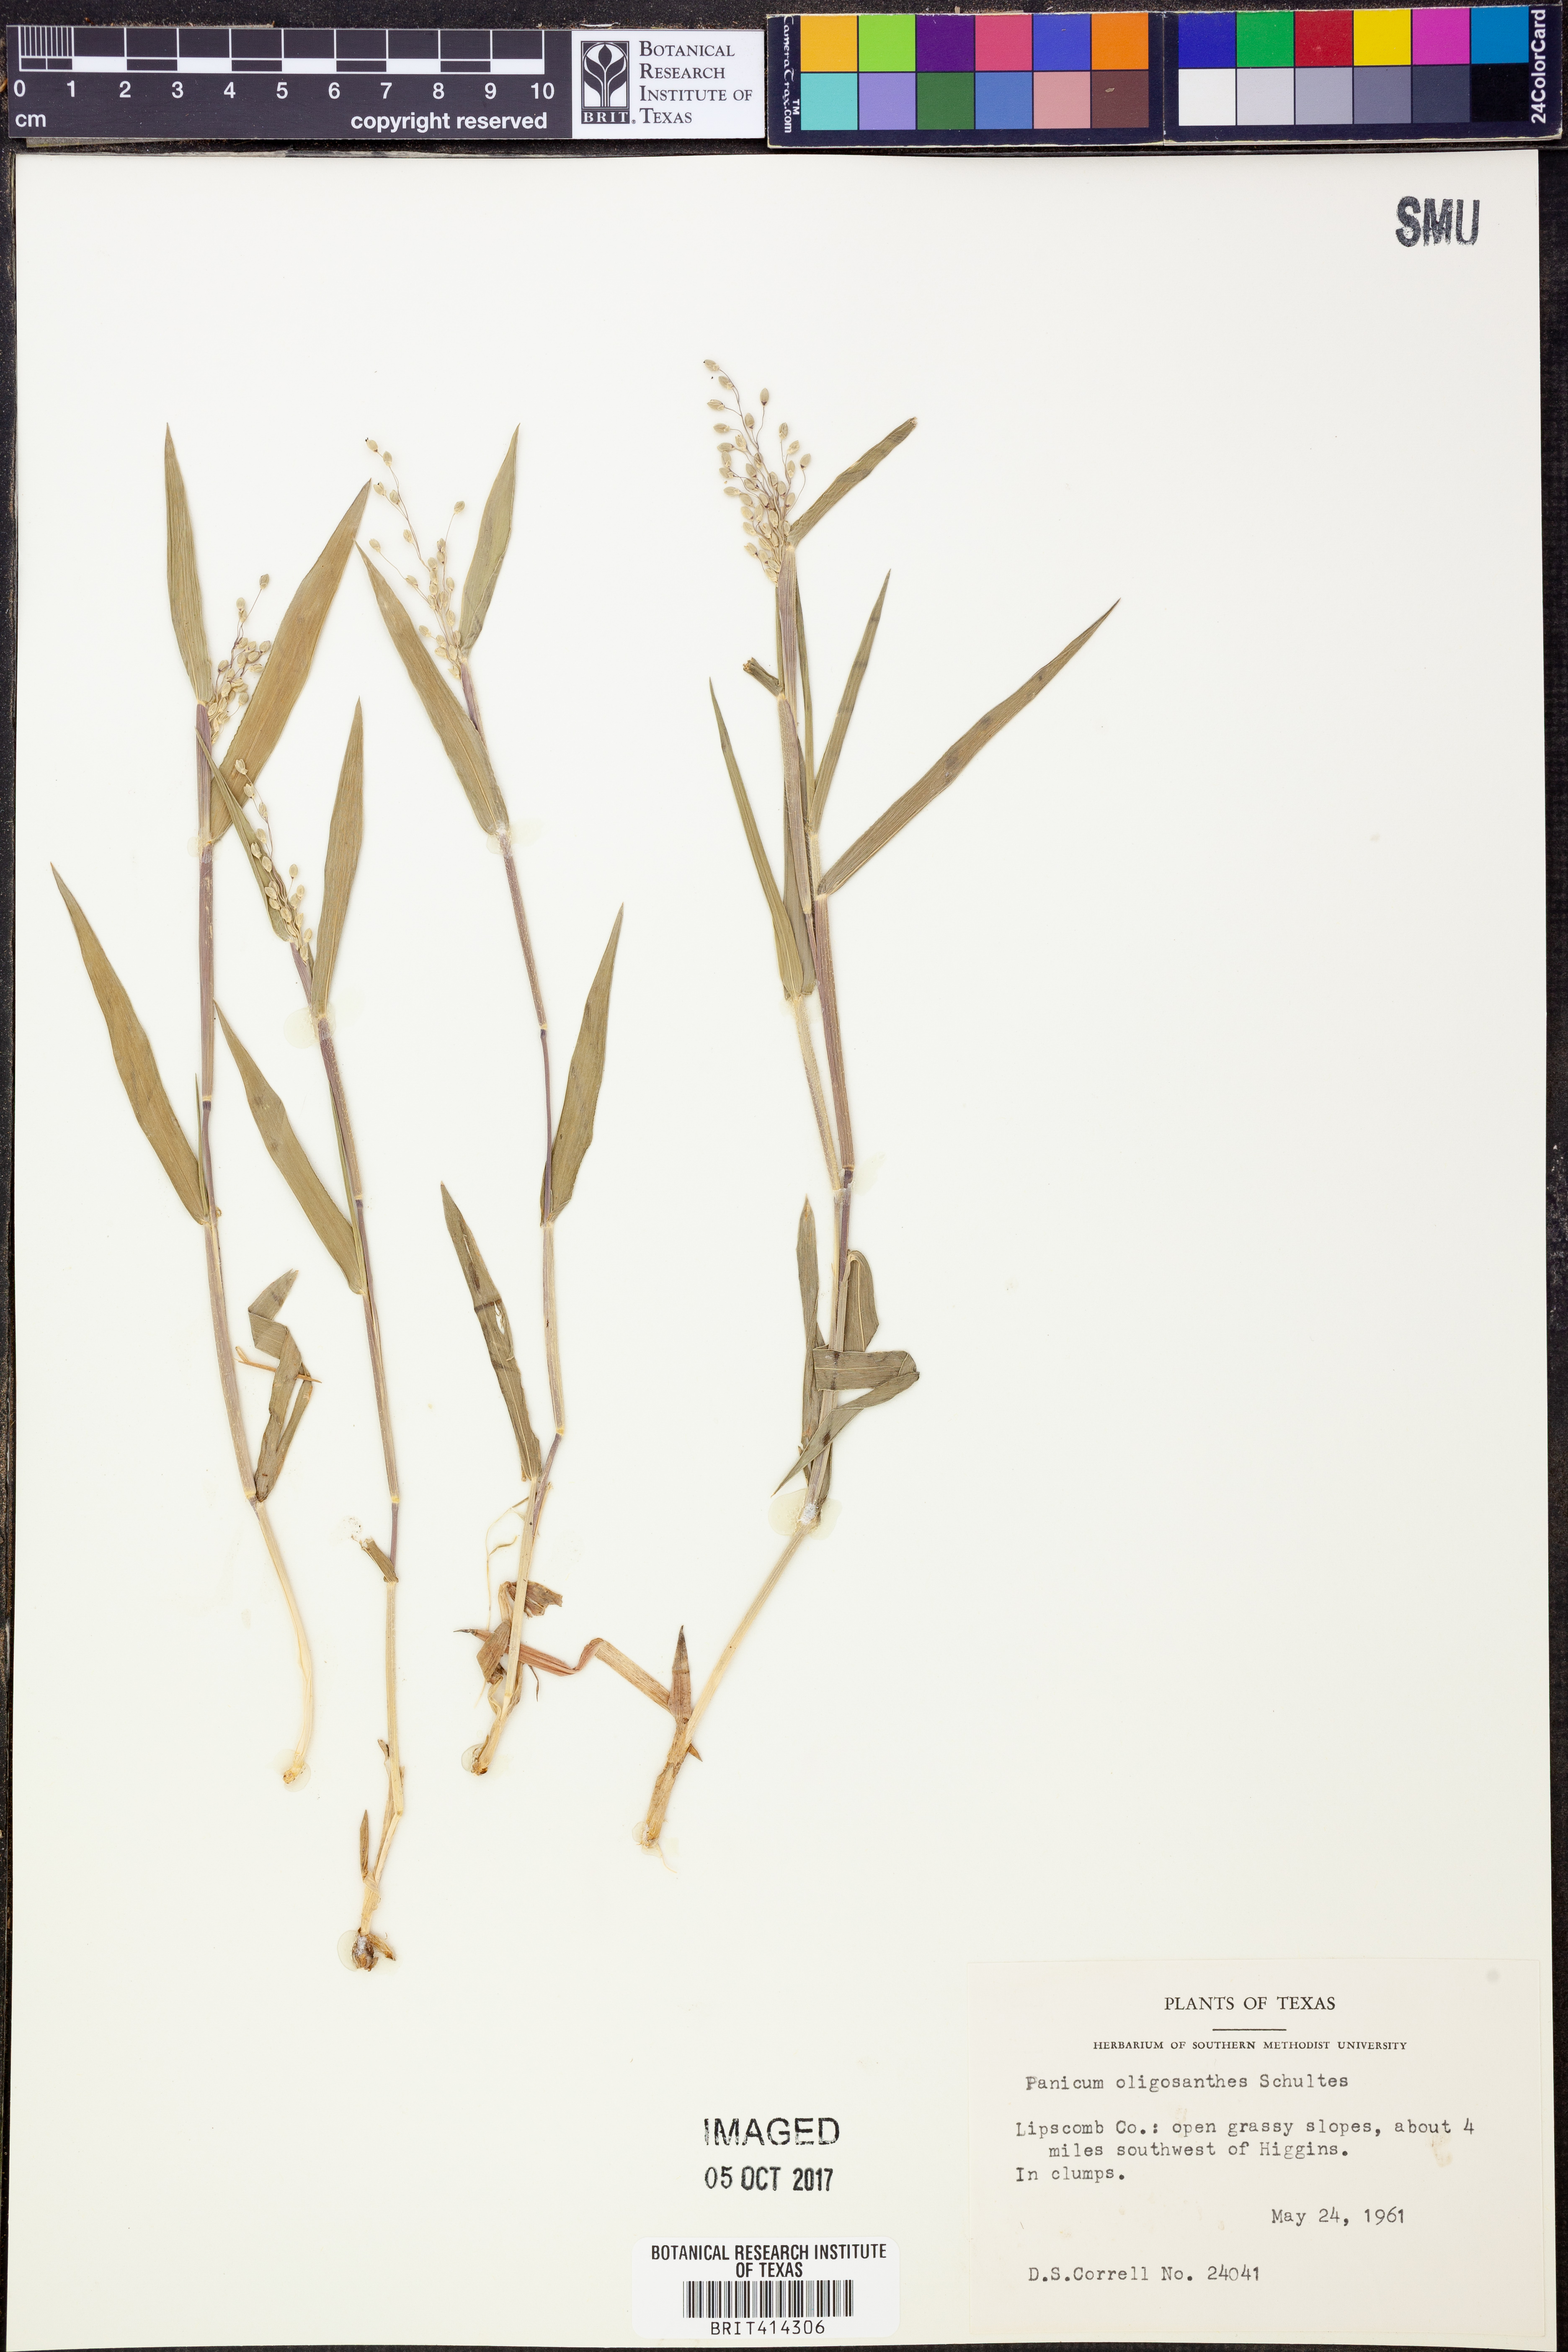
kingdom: Plantae
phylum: Tracheophyta
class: Liliopsida
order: Poales
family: Poaceae
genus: Dichanthelium
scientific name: Dichanthelium oligosanthes
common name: Few-anther obscuregrass
